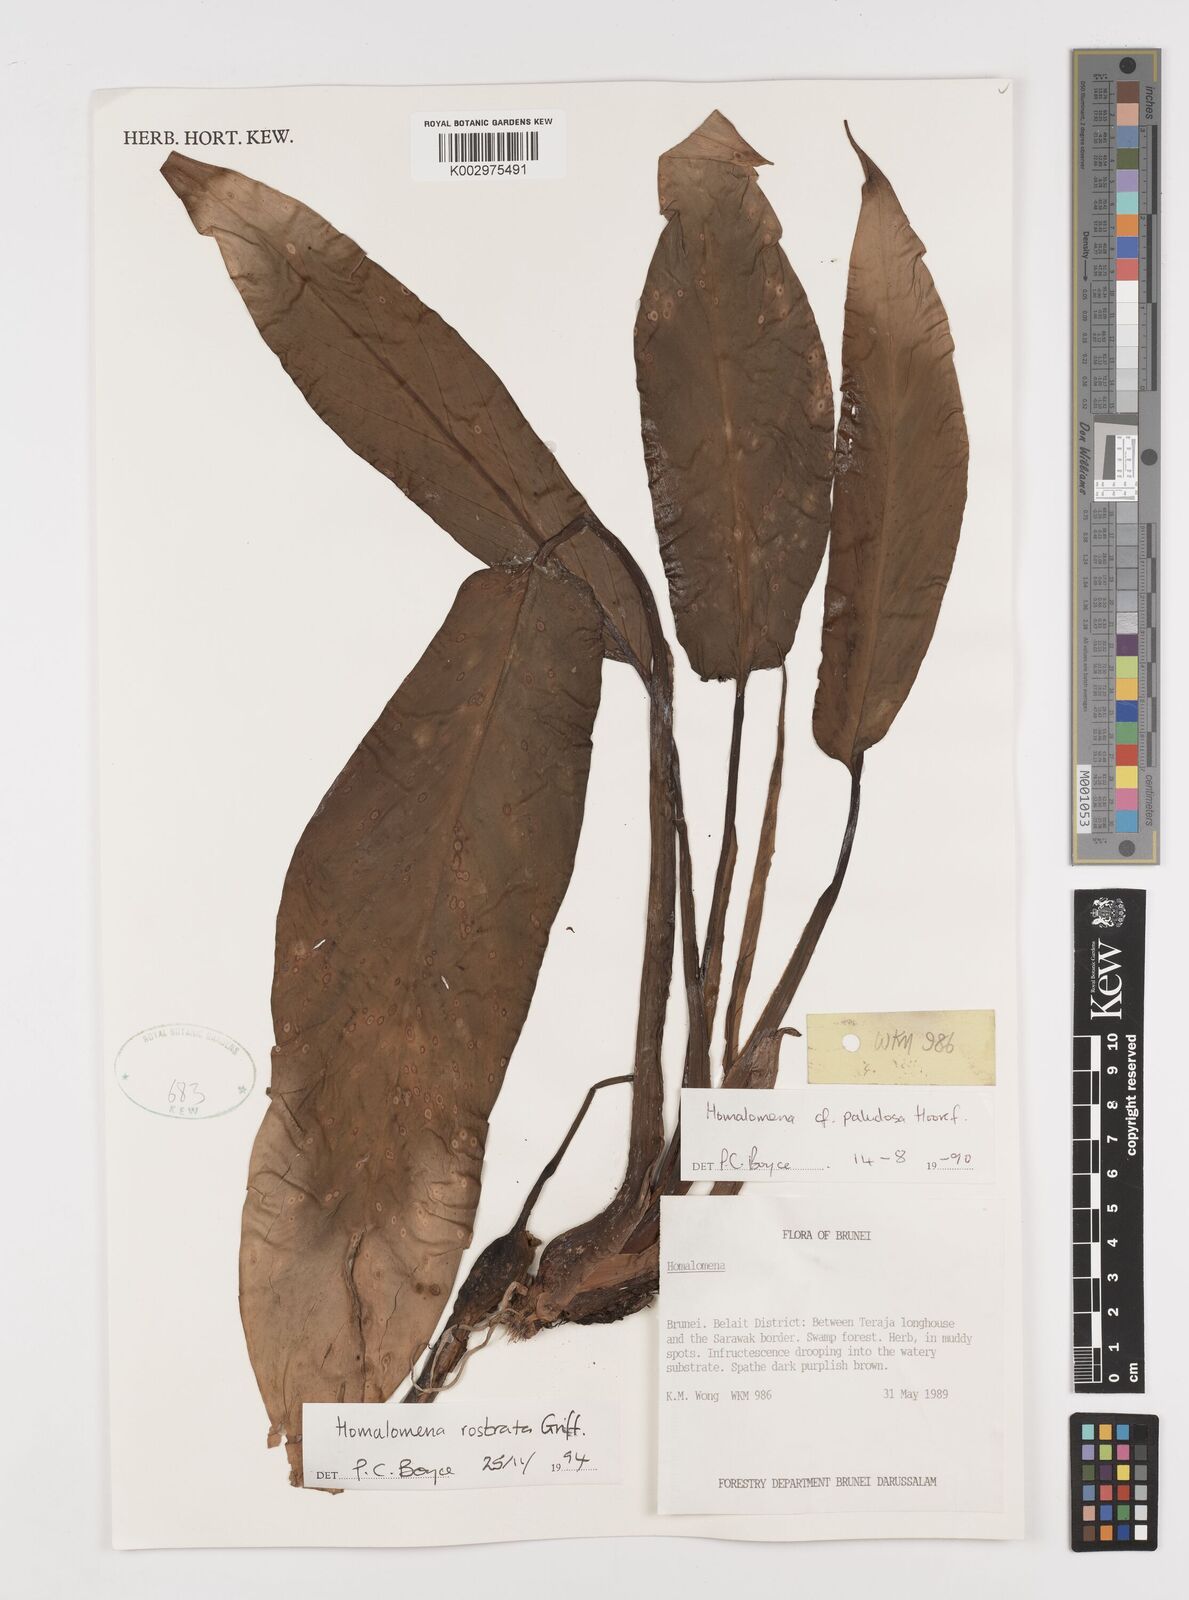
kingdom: Plantae
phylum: Tracheophyta
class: Liliopsida
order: Alismatales
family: Araceae
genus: Homalomena
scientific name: Homalomena rostrata
